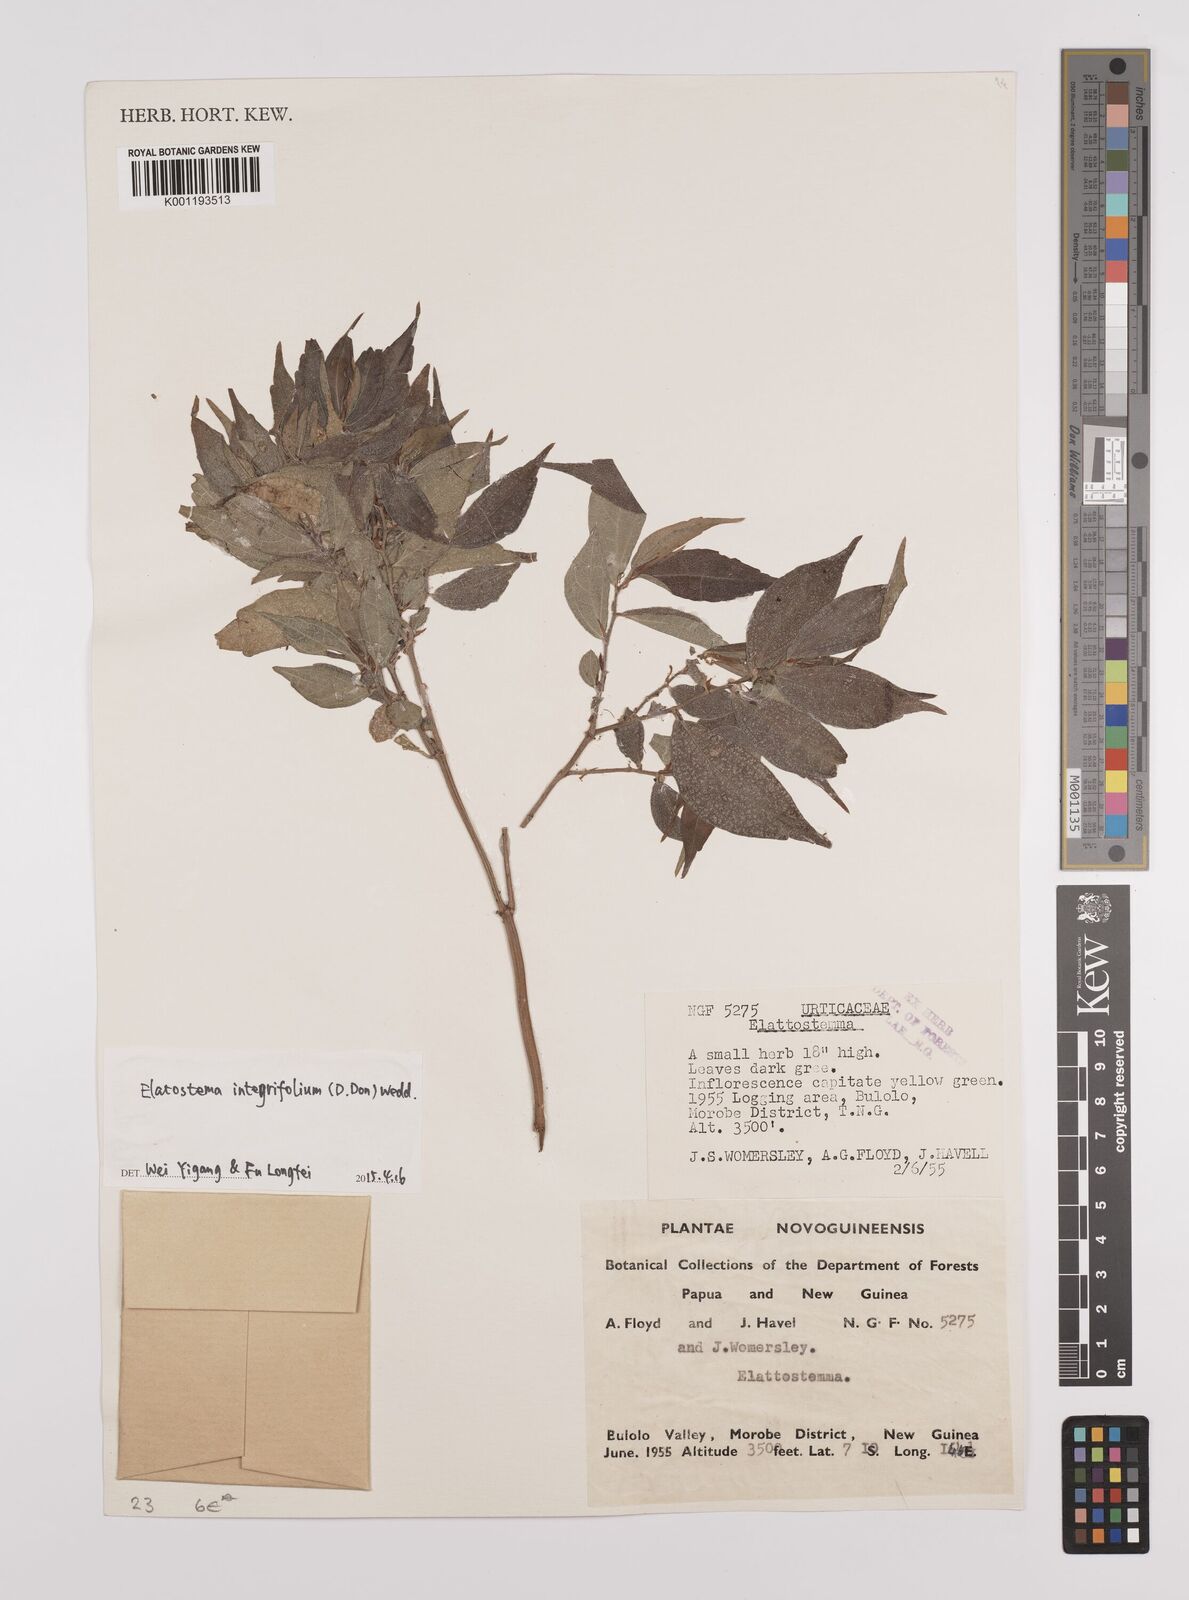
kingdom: Plantae
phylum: Tracheophyta
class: Magnoliopsida
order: Rosales
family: Urticaceae
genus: Elatostema
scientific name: Elatostema integrifolium
